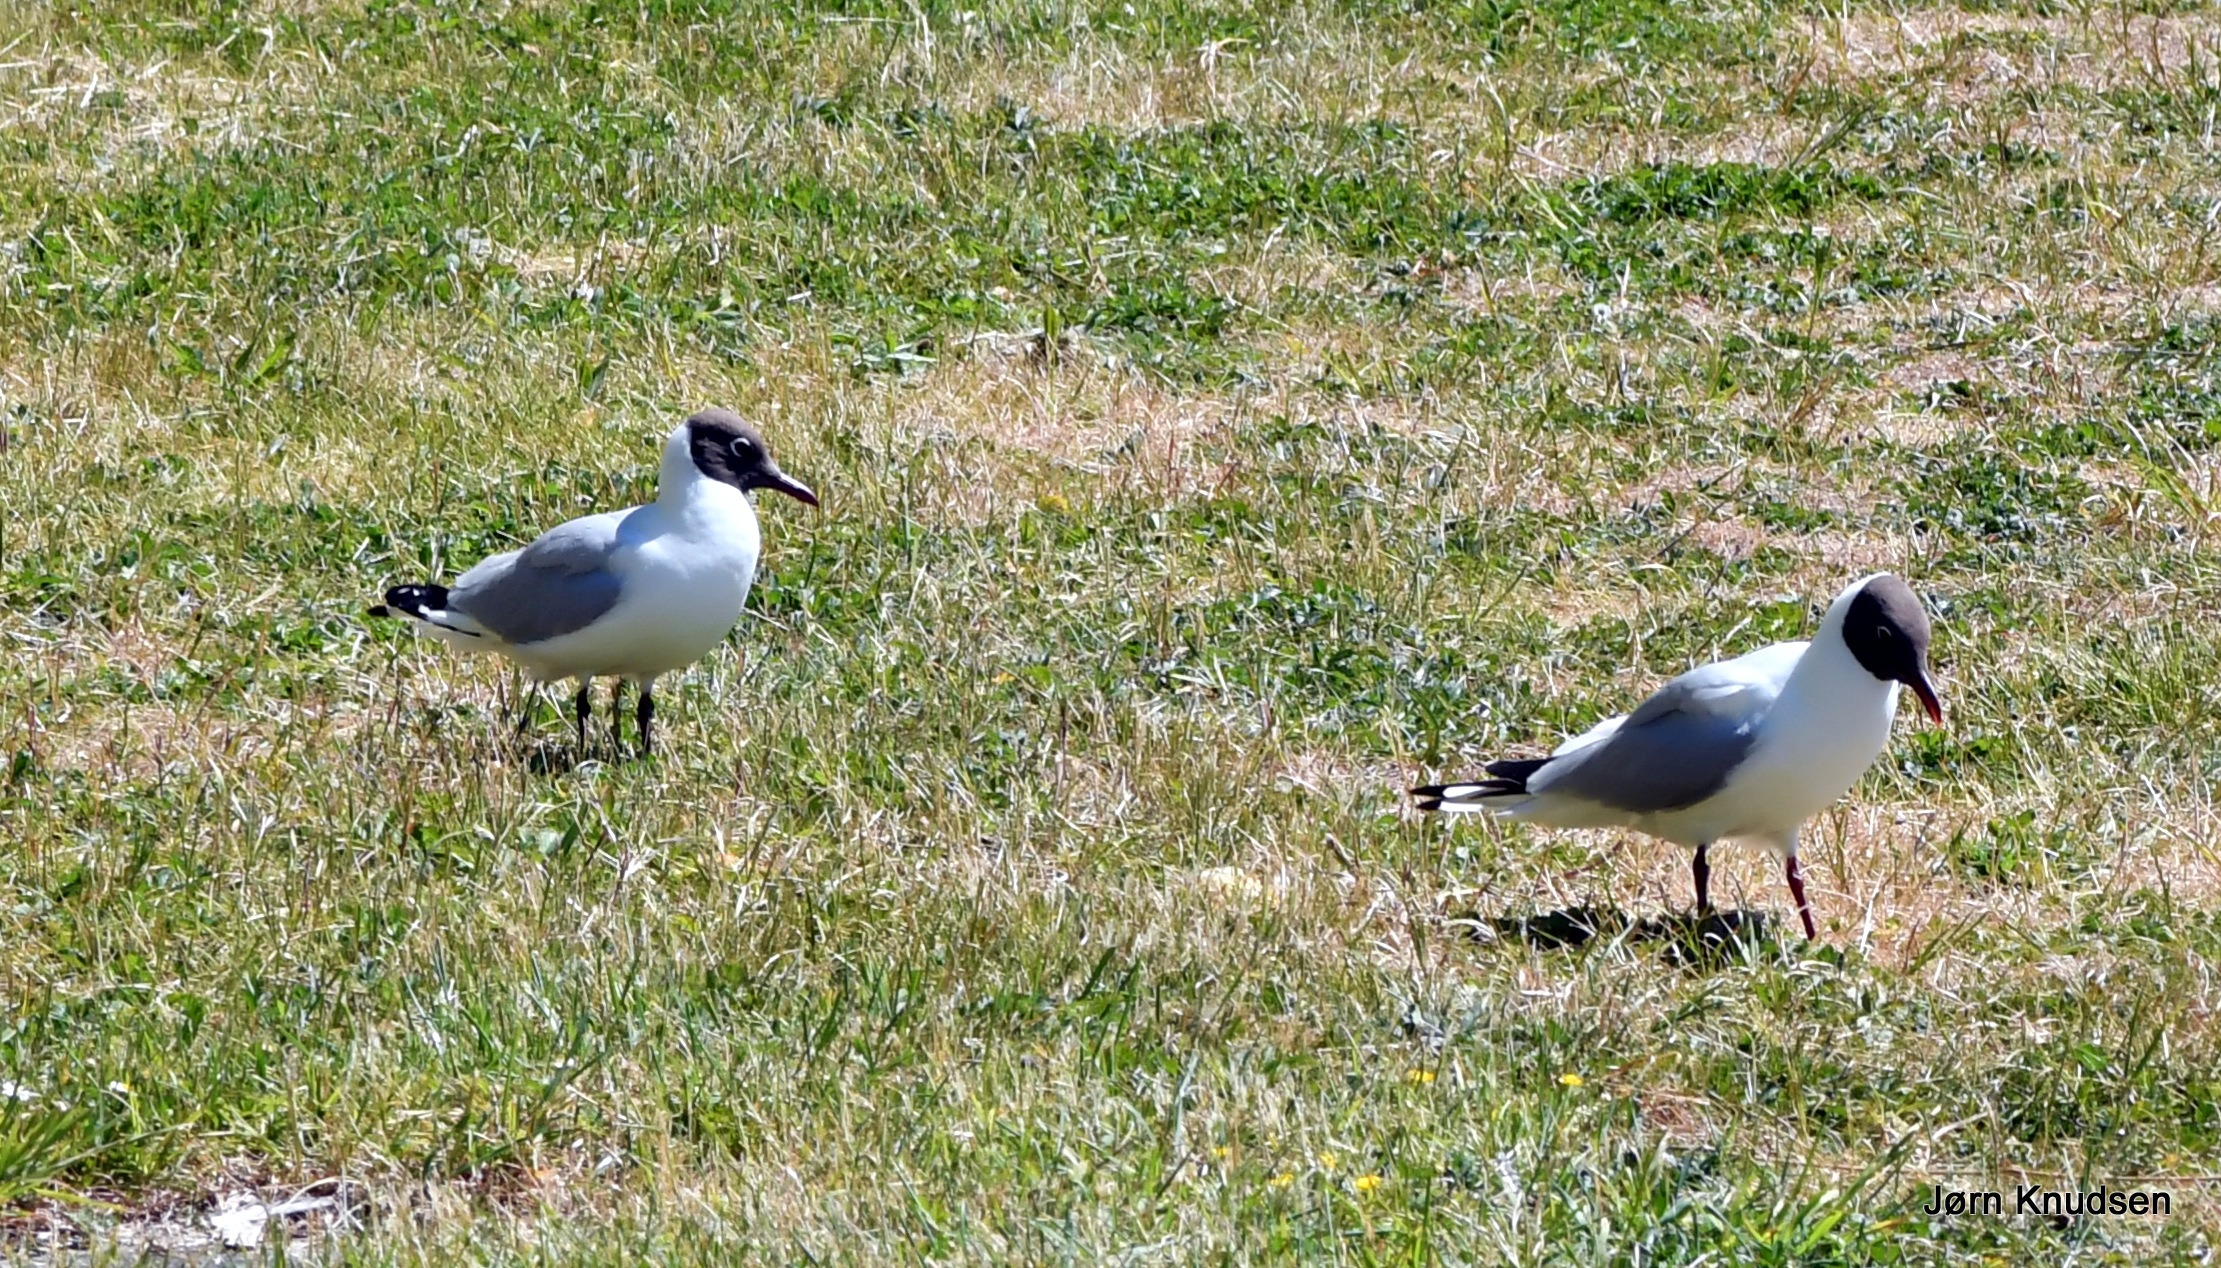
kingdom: Animalia
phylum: Chordata
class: Aves
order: Charadriiformes
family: Laridae
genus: Chroicocephalus
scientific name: Chroicocephalus ridibundus
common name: Hættemåge
